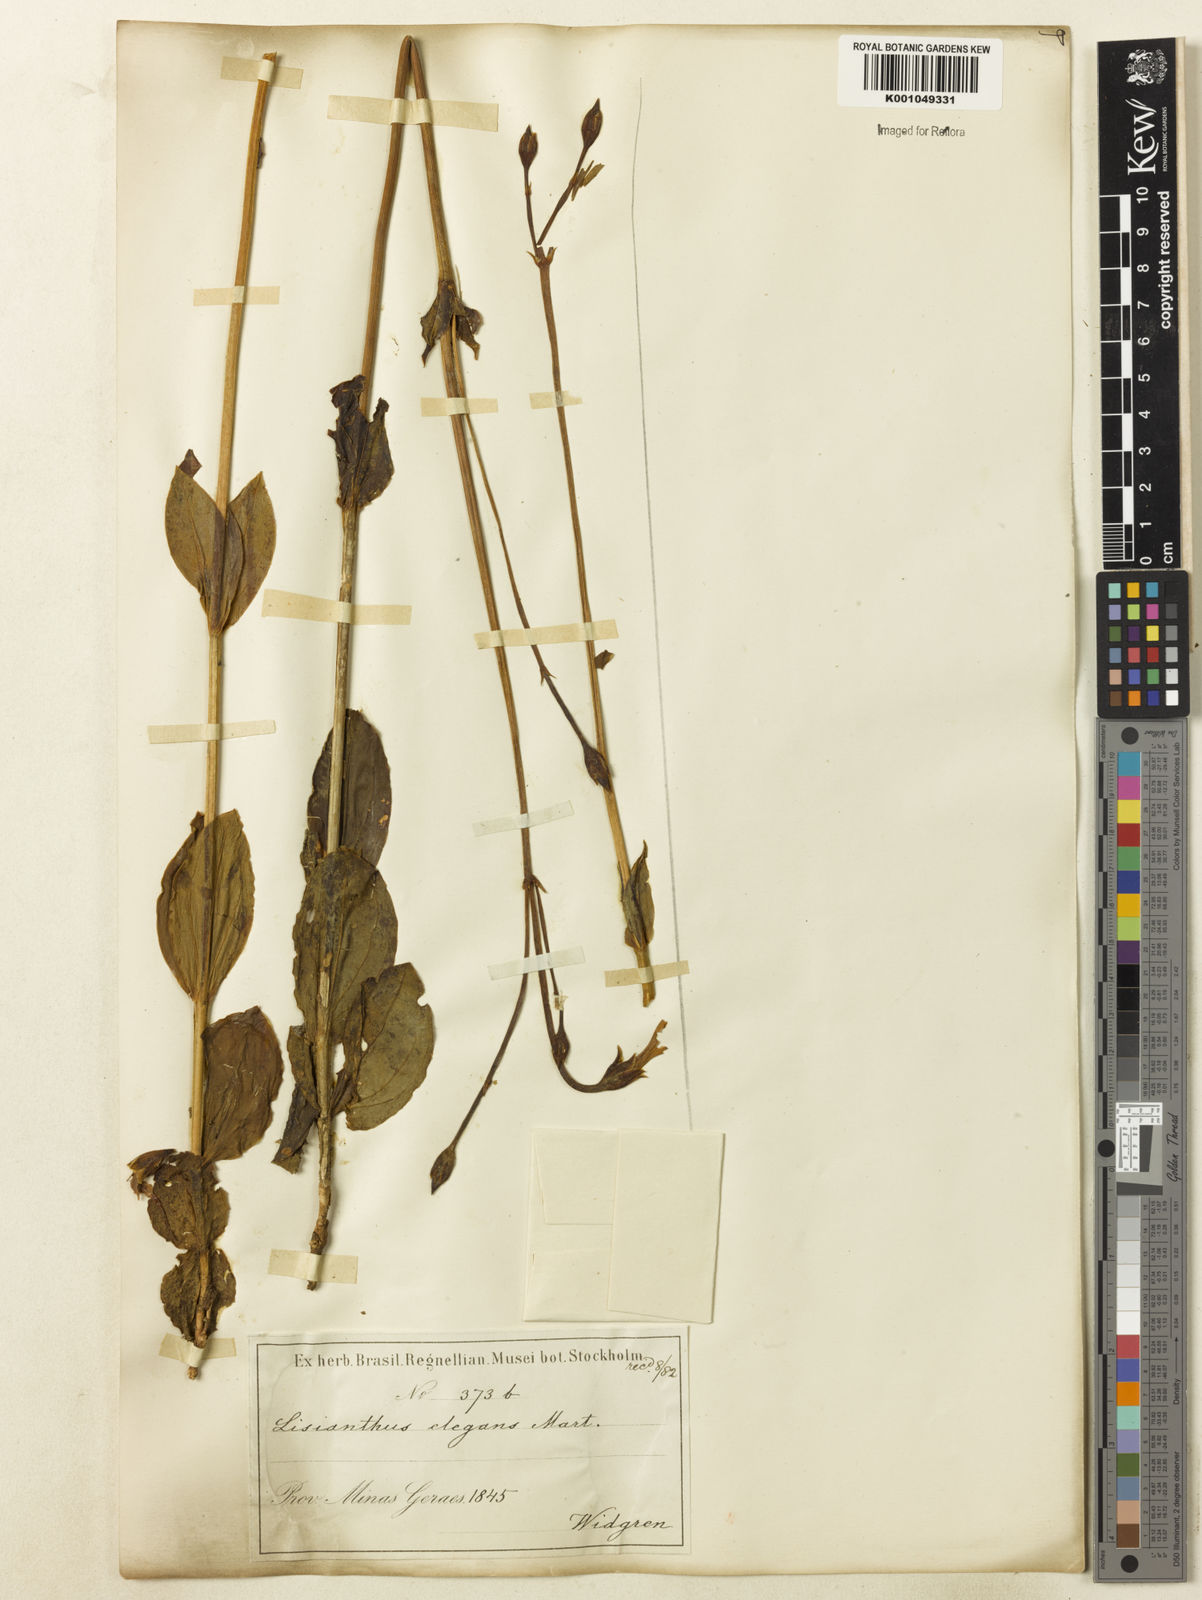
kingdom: Plantae
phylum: Tracheophyta
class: Magnoliopsida
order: Gentianales
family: Gentianaceae
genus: Calolisianthus
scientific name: Calolisianthus
